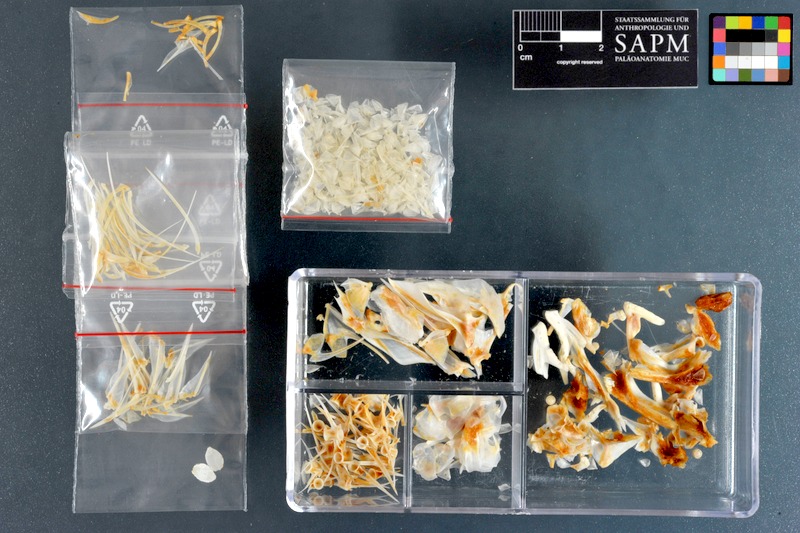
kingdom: Animalia
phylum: Chordata
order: Perciformes
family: Lethrinidae
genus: Lethrinus
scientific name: Lethrinus miniatus
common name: Trumpet emperor
